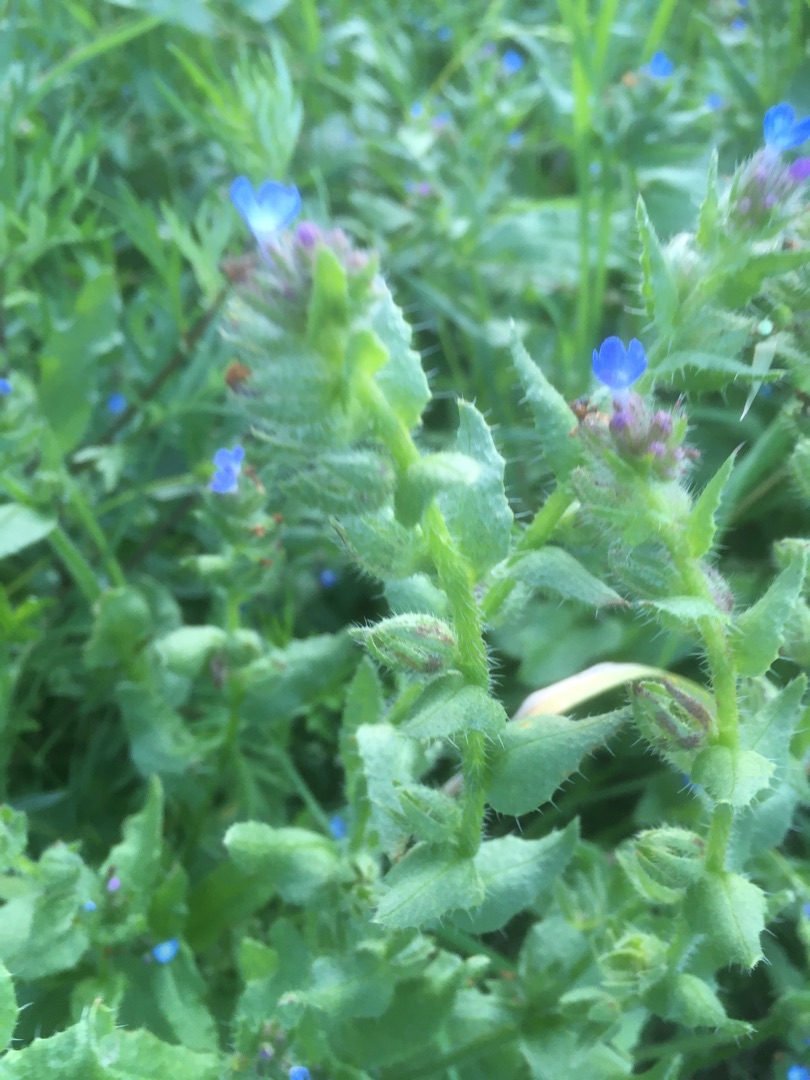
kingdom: Plantae
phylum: Tracheophyta
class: Magnoliopsida
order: Boraginales
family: Boraginaceae
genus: Lycopsis
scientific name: Lycopsis arvensis
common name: Krumhals
